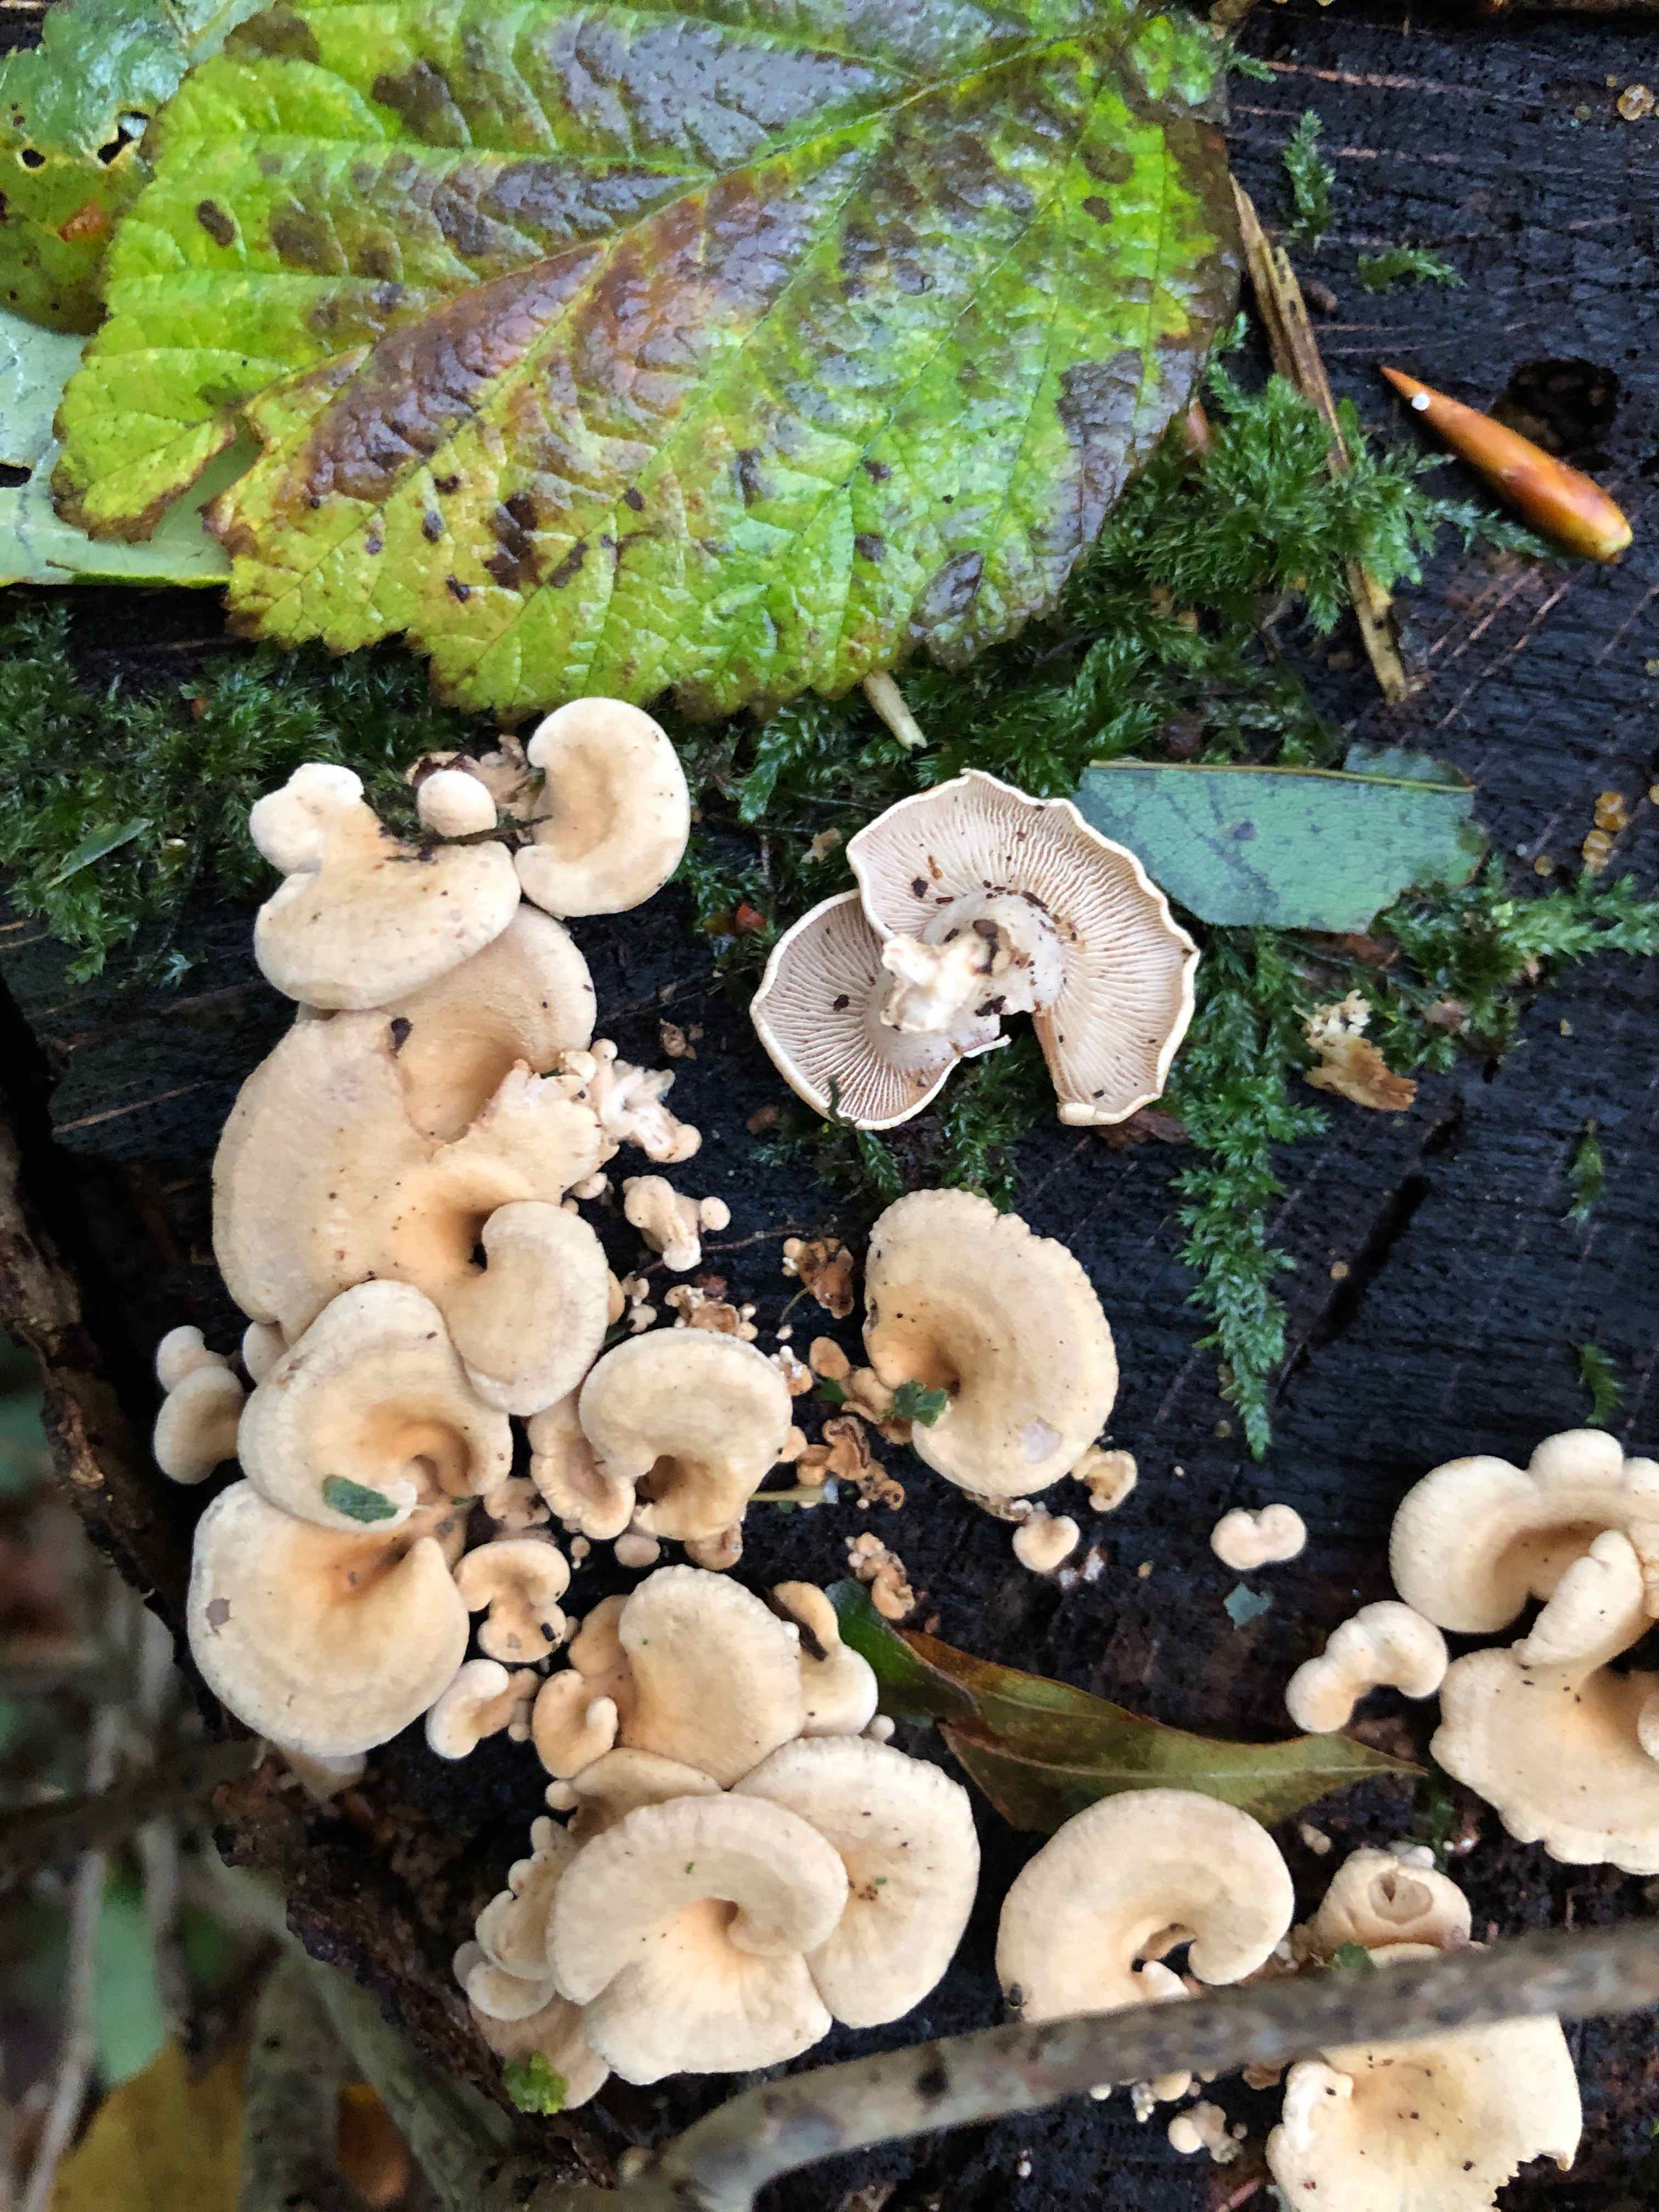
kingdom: Fungi
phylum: Basidiomycota
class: Agaricomycetes
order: Agaricales
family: Mycenaceae
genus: Panellus
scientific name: Panellus stipticus
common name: kliddet epaulethat
